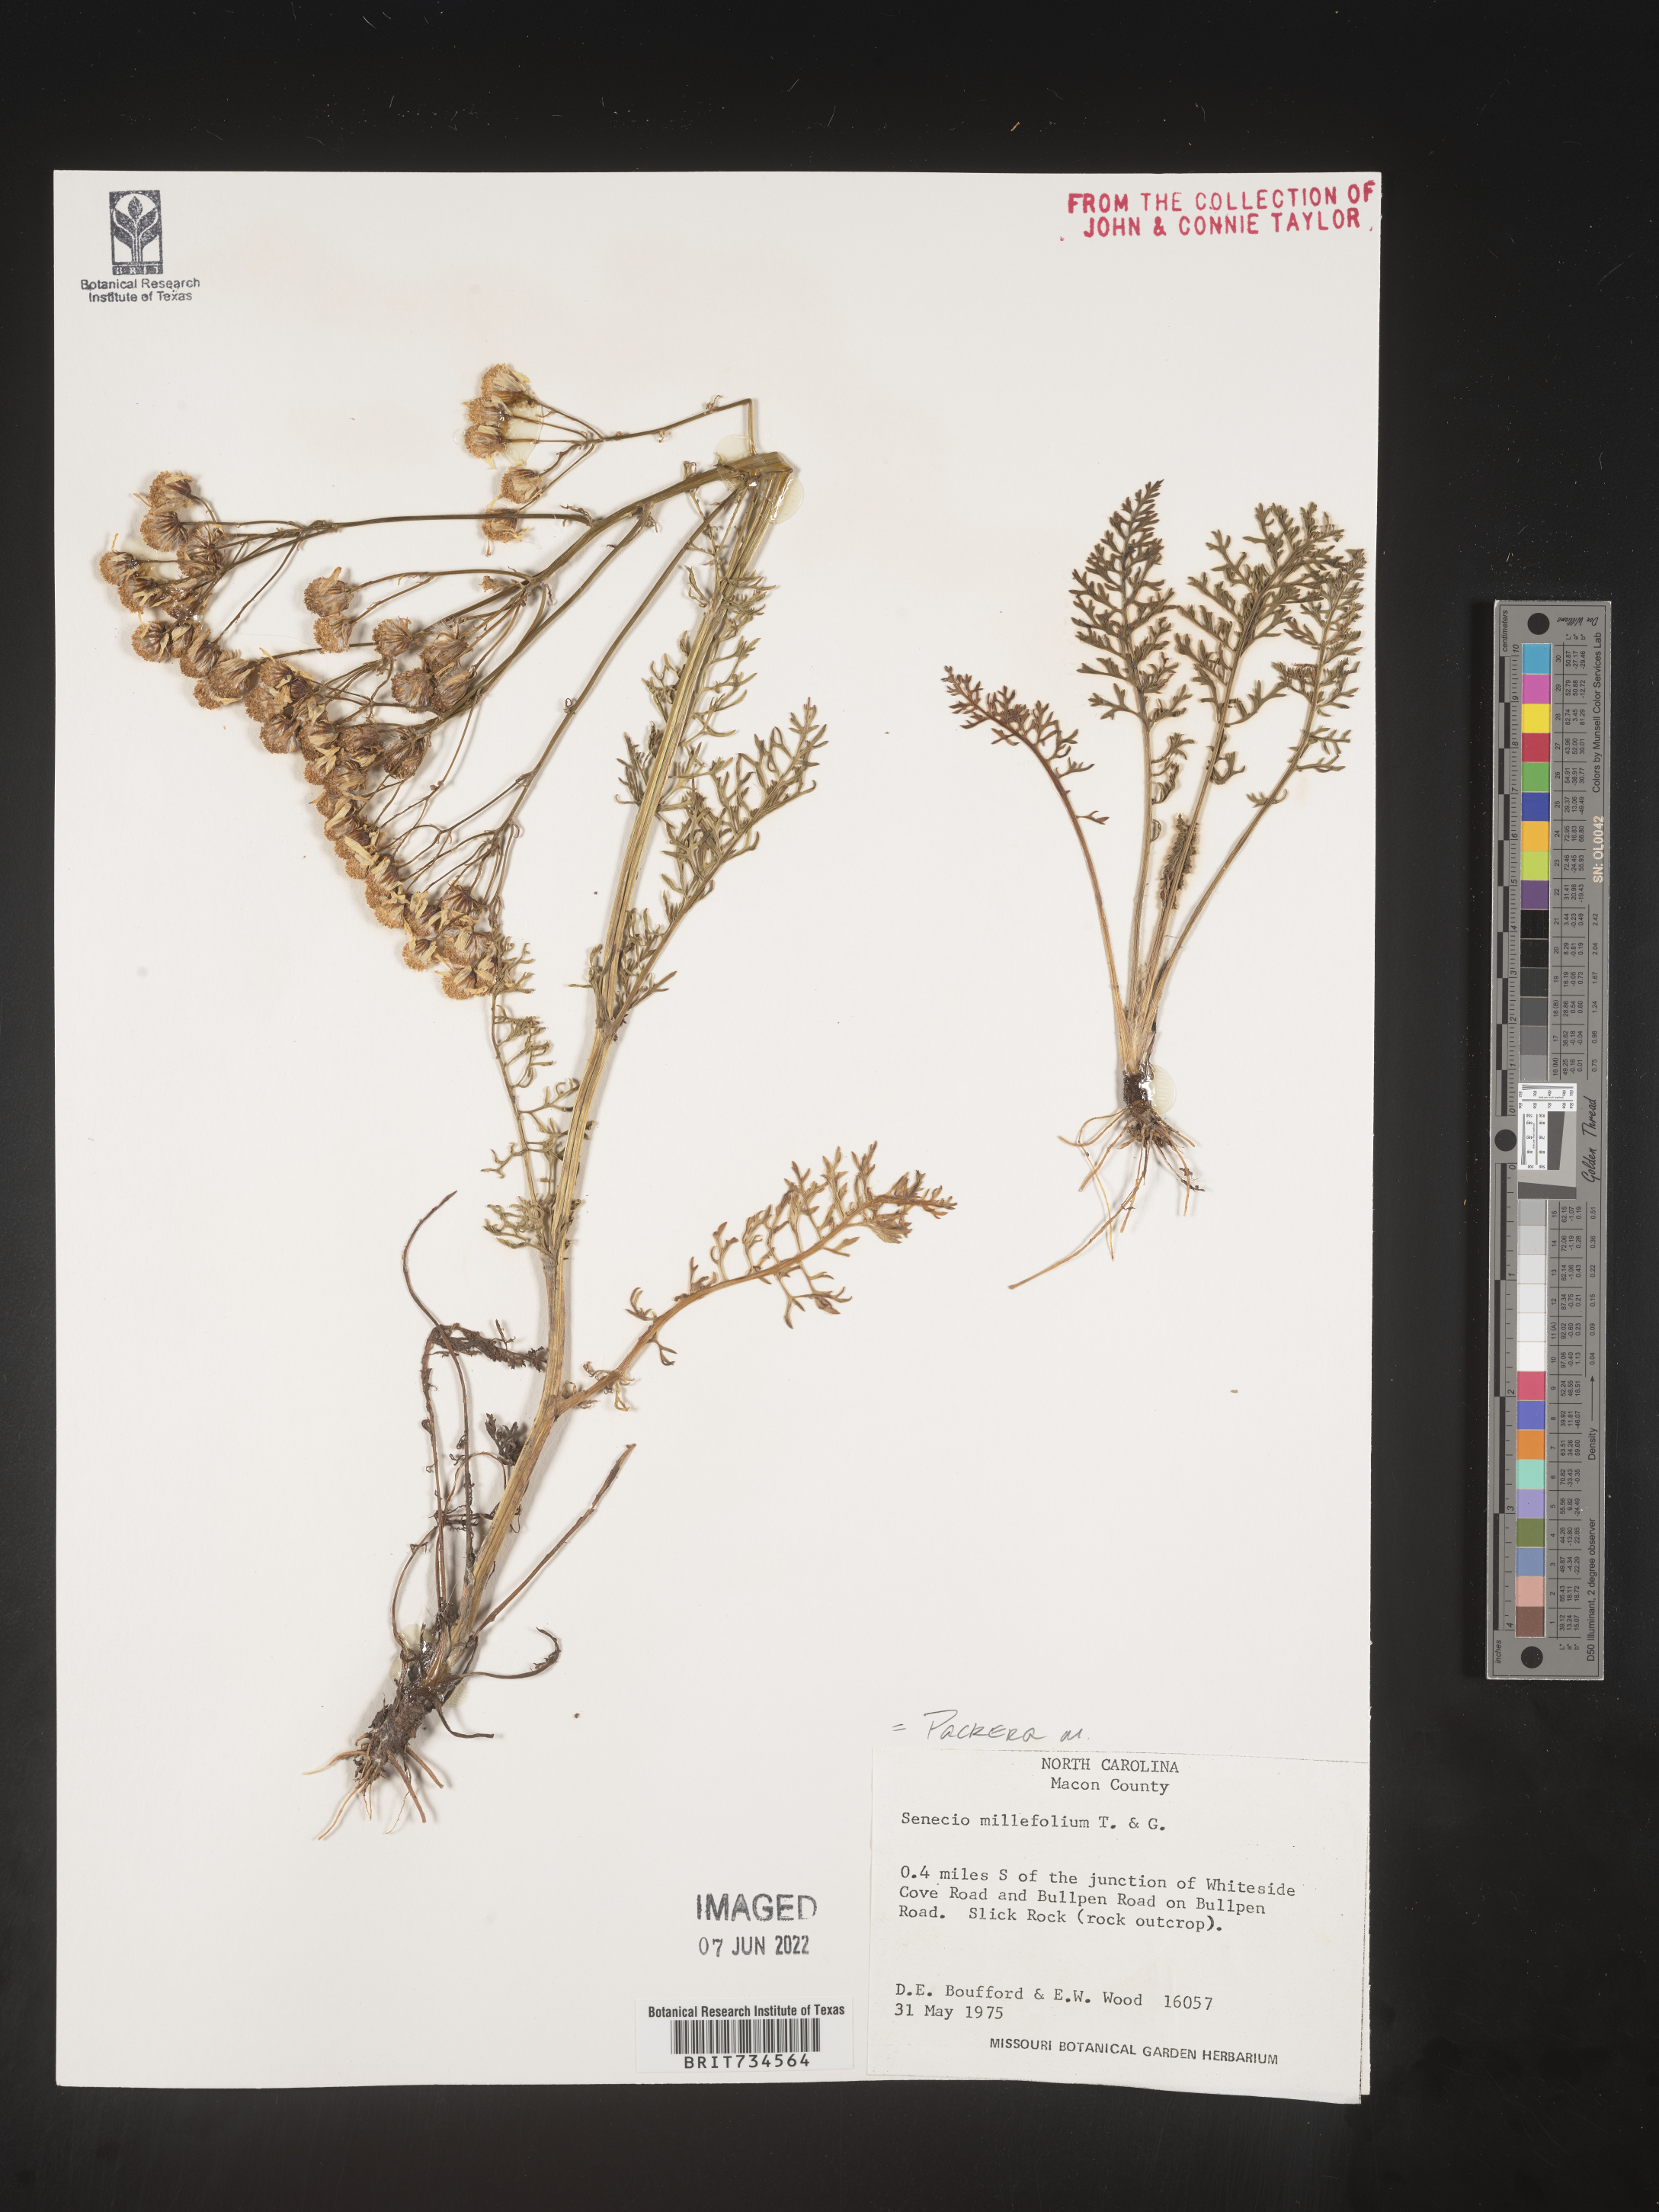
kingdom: Plantae
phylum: Tracheophyta
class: Magnoliopsida
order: Asterales
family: Asteraceae
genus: Packera
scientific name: Packera millefolia
